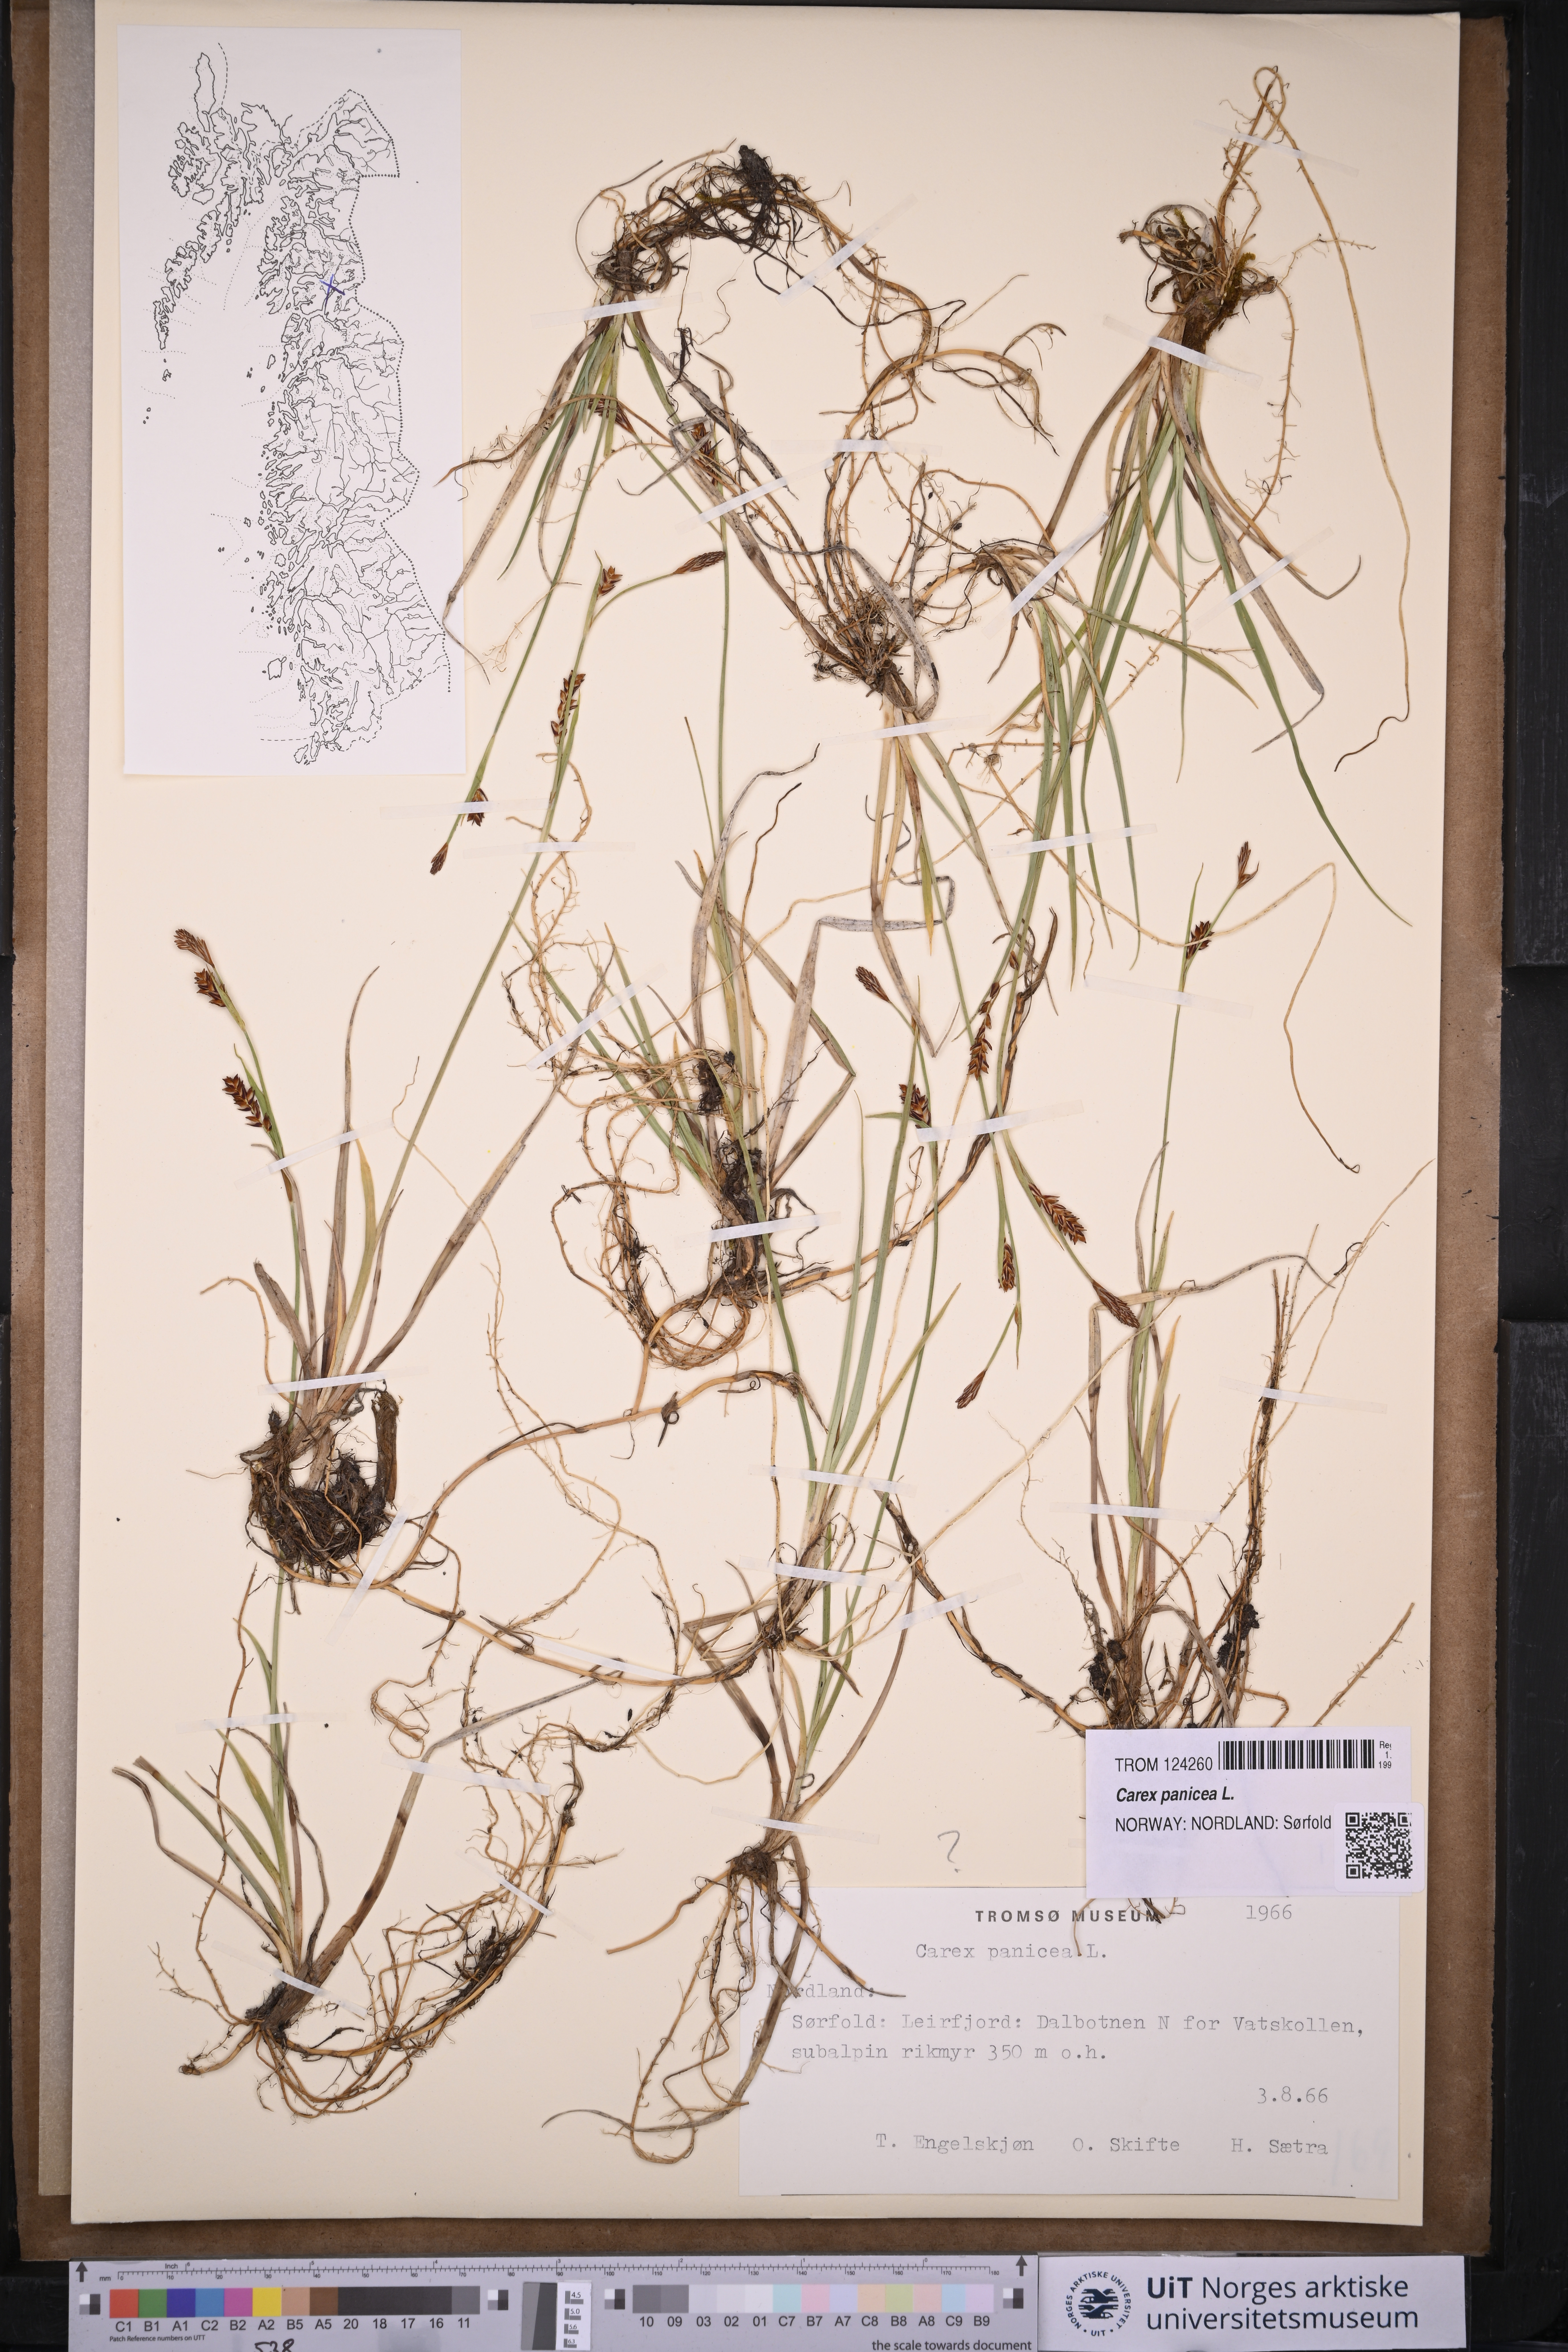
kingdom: Plantae
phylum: Tracheophyta
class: Liliopsida
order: Poales
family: Cyperaceae
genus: Carex
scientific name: Carex panicea
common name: Carnation sedge
